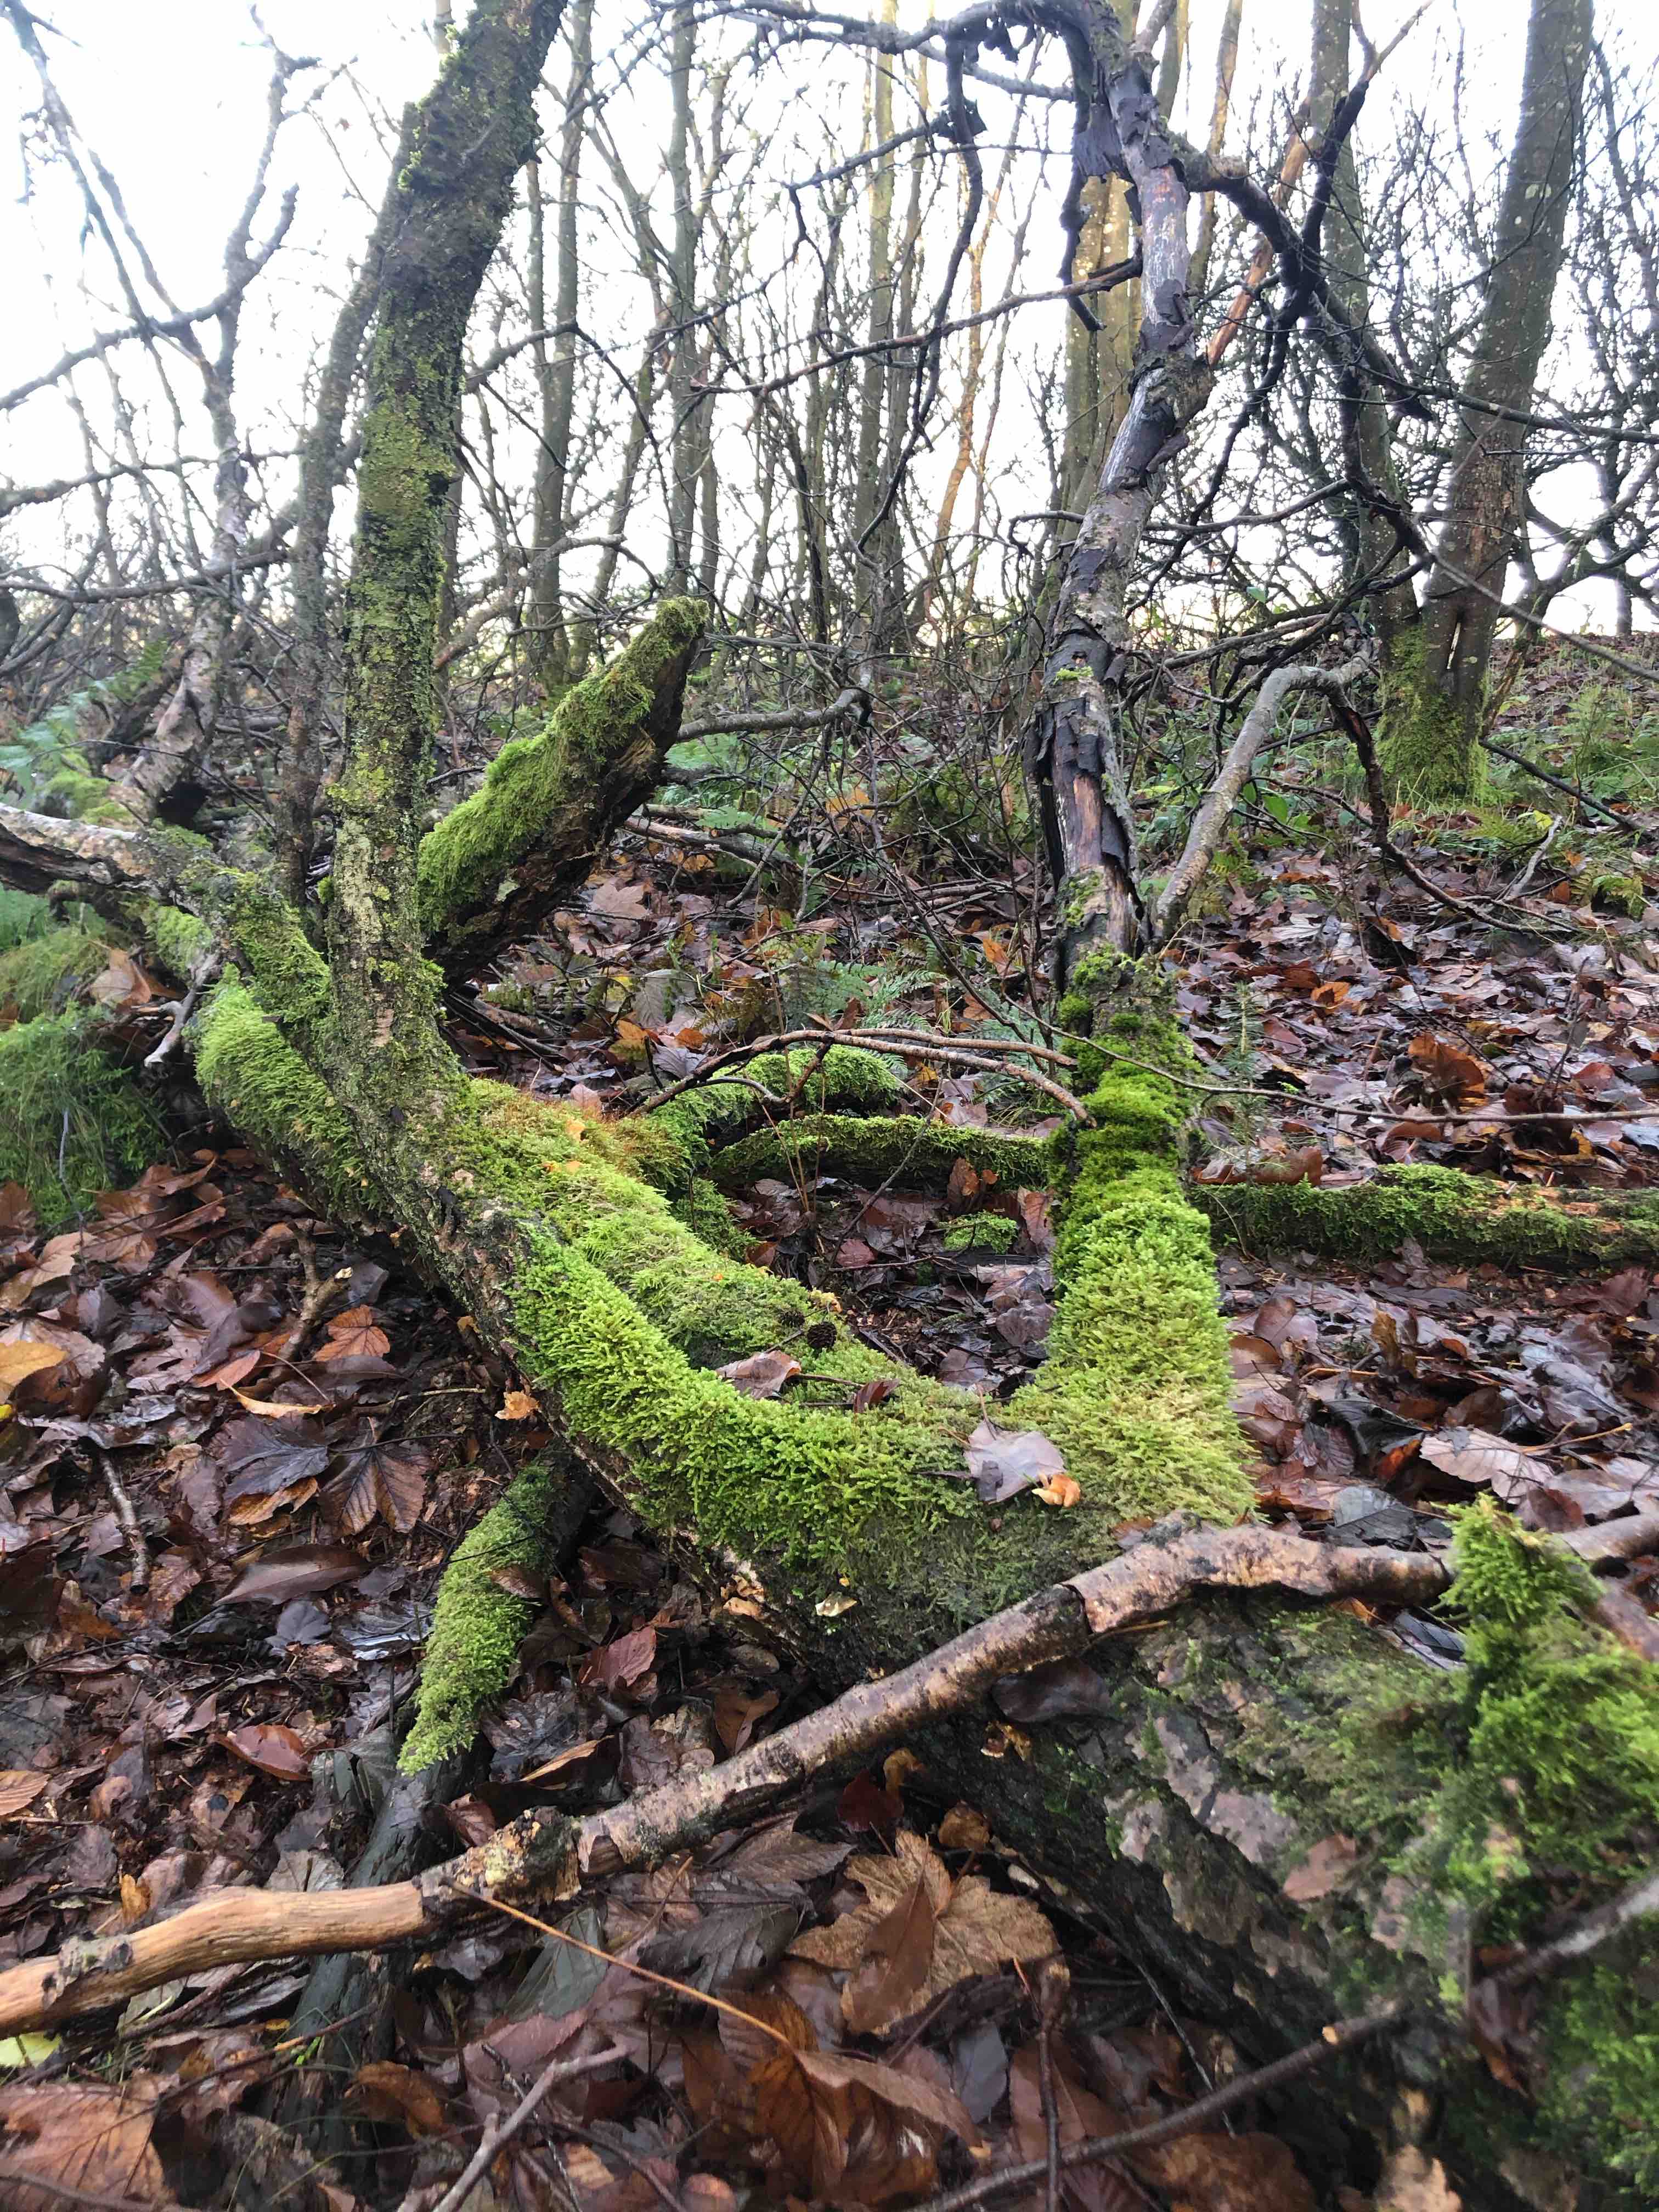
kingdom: Fungi
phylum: Basidiomycota
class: Agaricomycetes
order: Agaricales
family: Physalacriaceae
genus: Flammulina
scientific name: Flammulina
